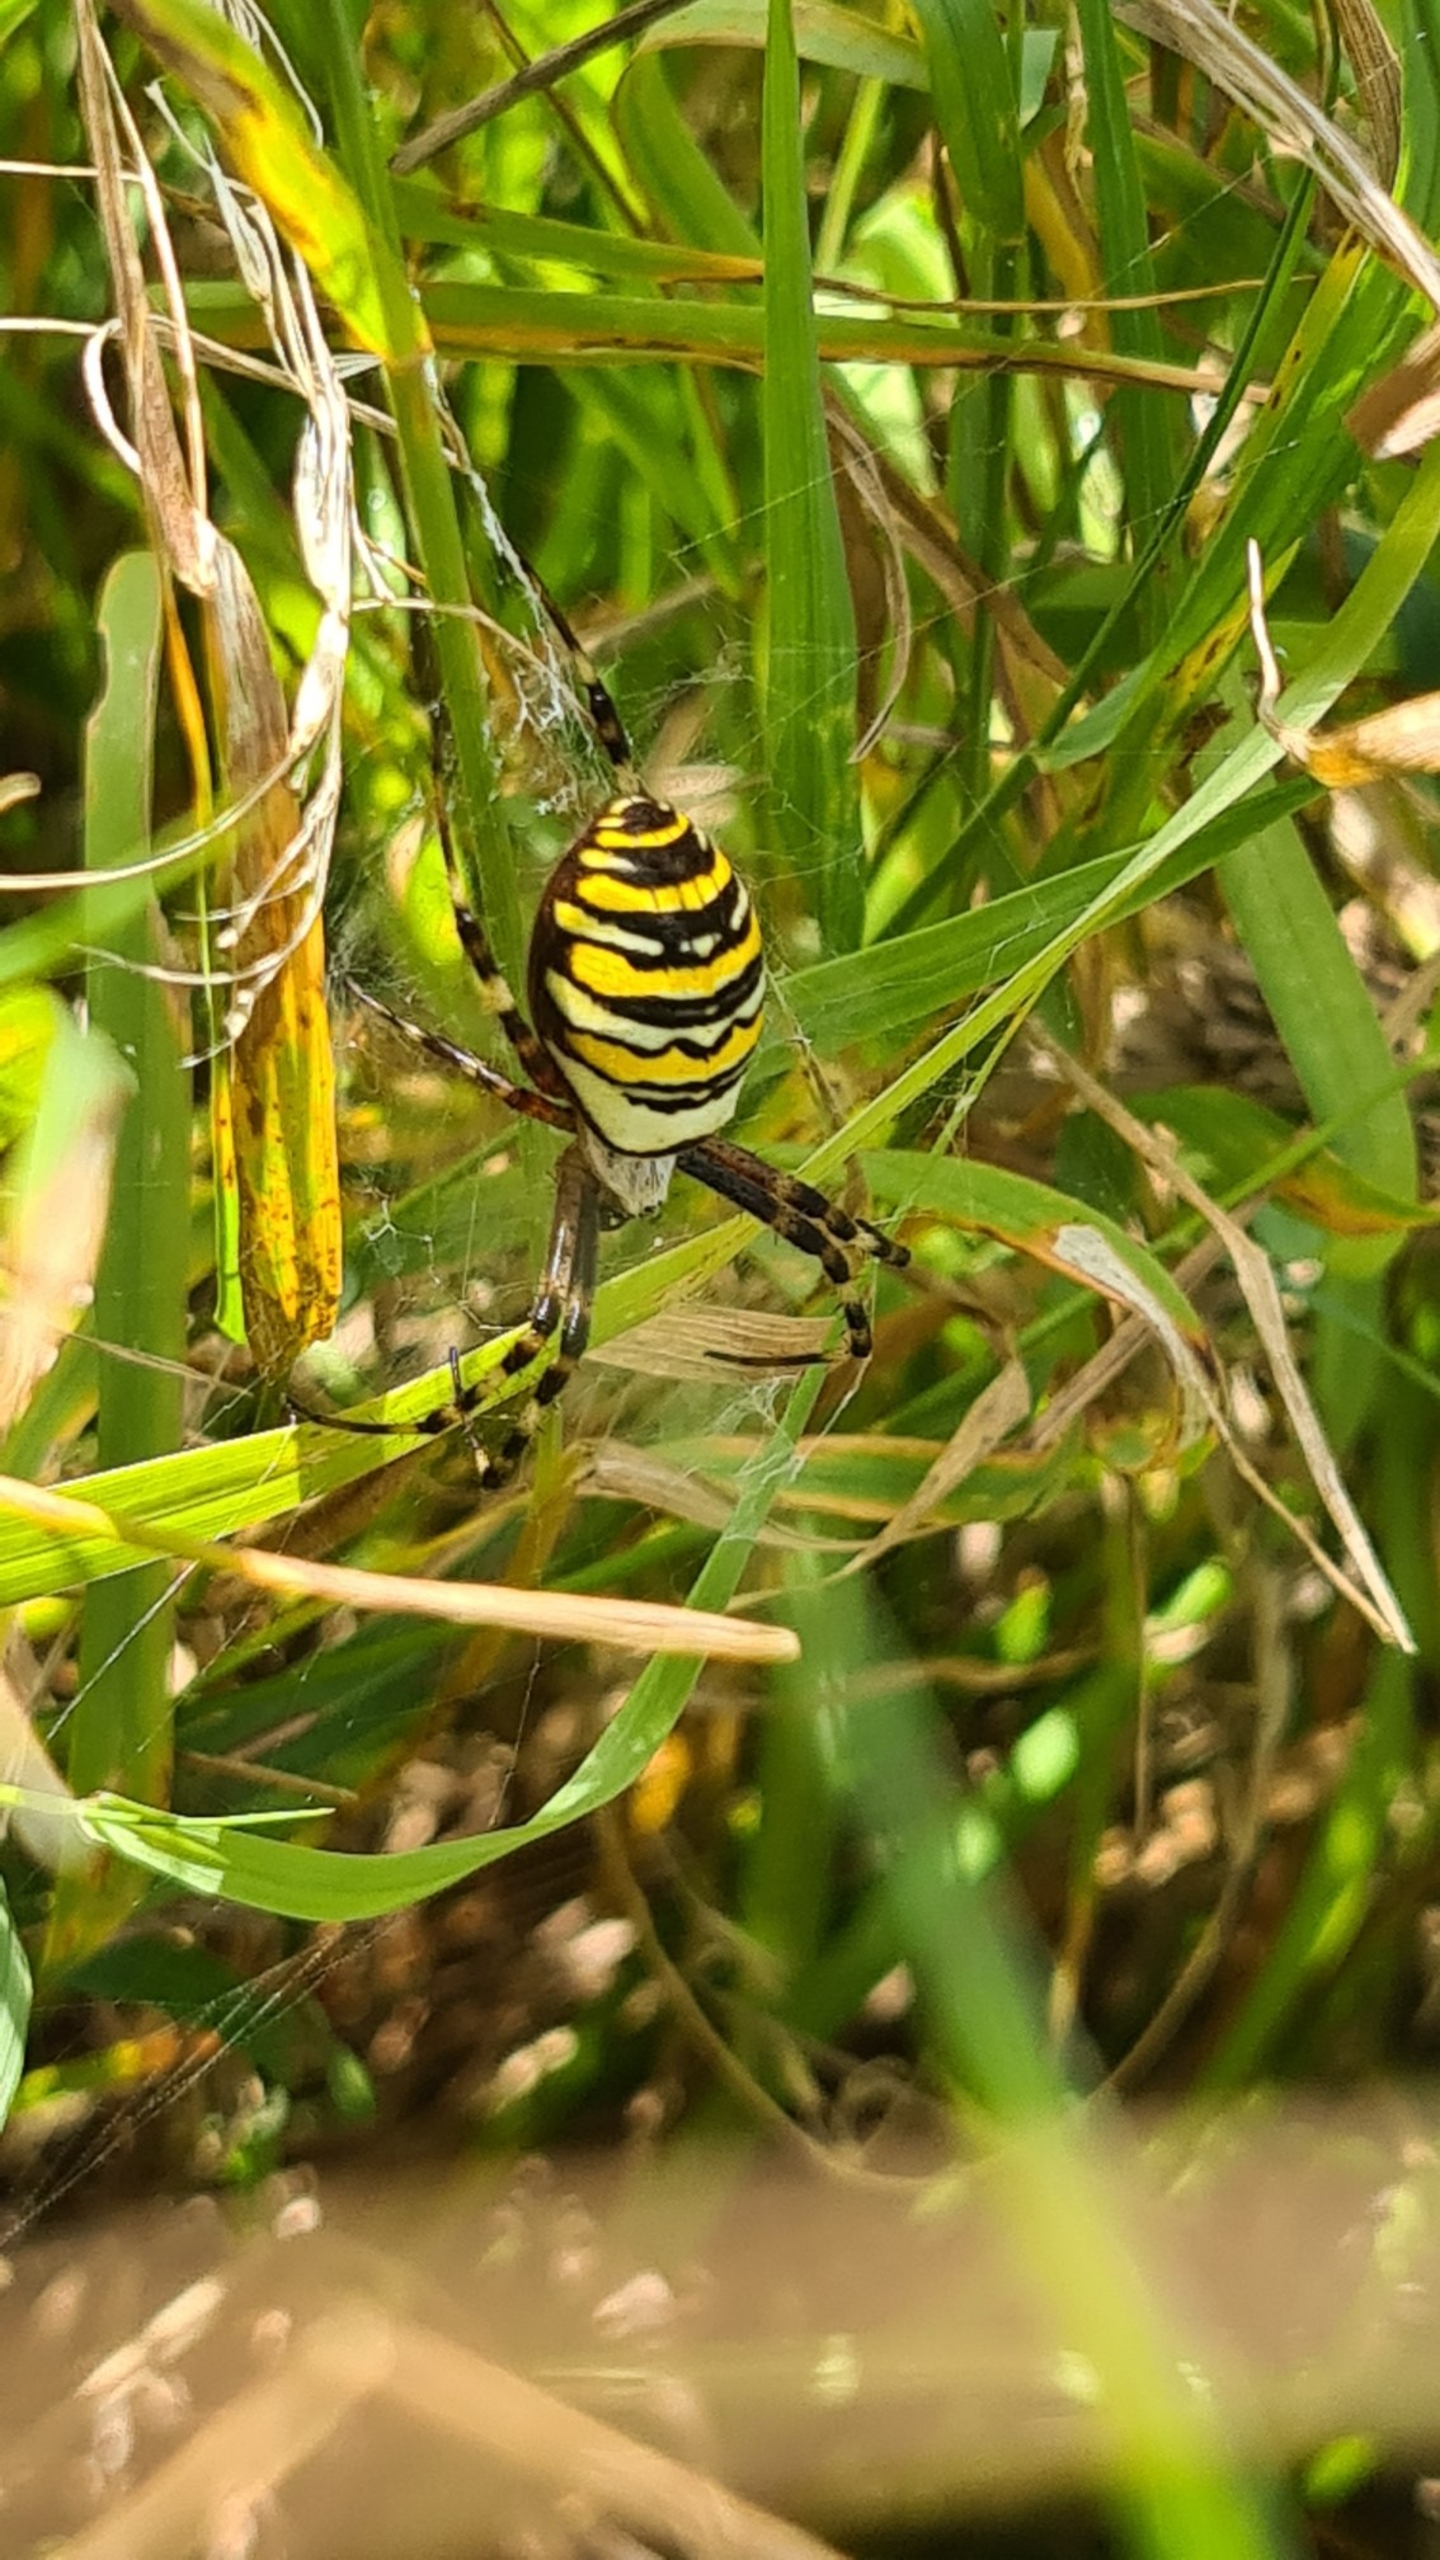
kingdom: Animalia
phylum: Arthropoda
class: Arachnida
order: Araneae
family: Araneidae
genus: Argiope
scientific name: Argiope bruennichi
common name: Hvepseedderkop
